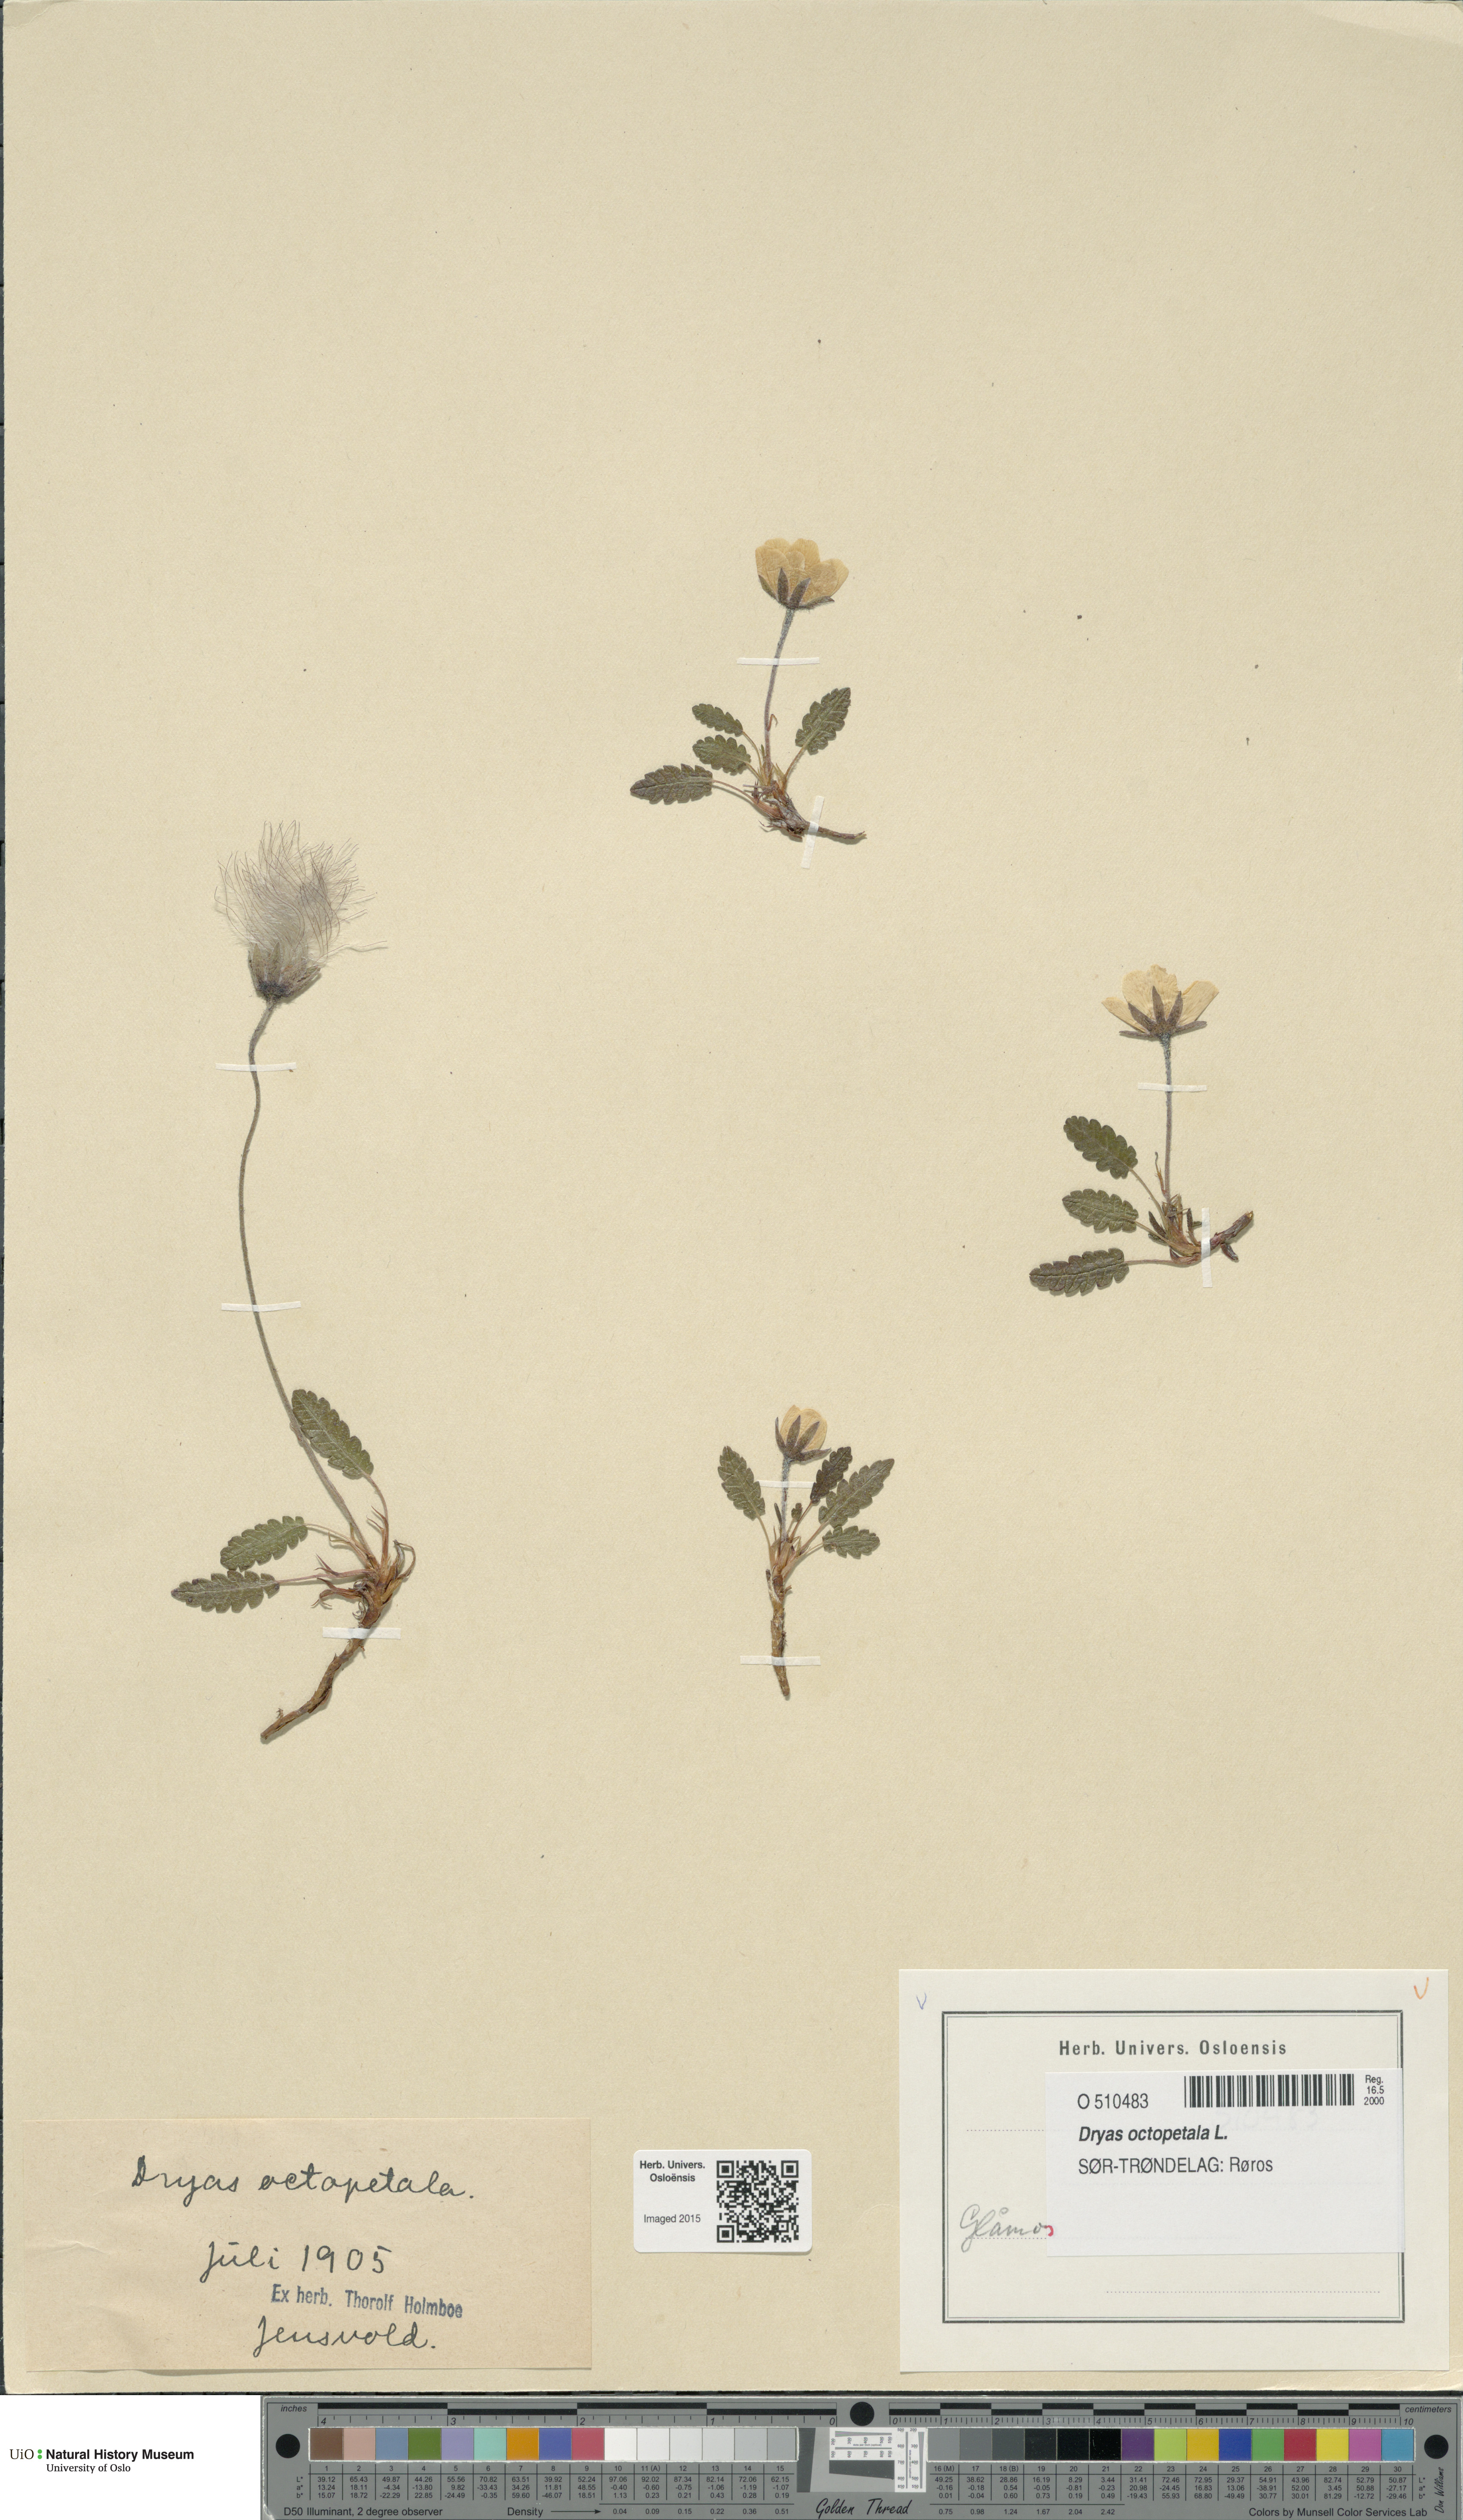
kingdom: Plantae
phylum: Tracheophyta
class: Magnoliopsida
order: Rosales
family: Rosaceae
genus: Dryas
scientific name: Dryas octopetala
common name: Eight-petal mountain-avens
